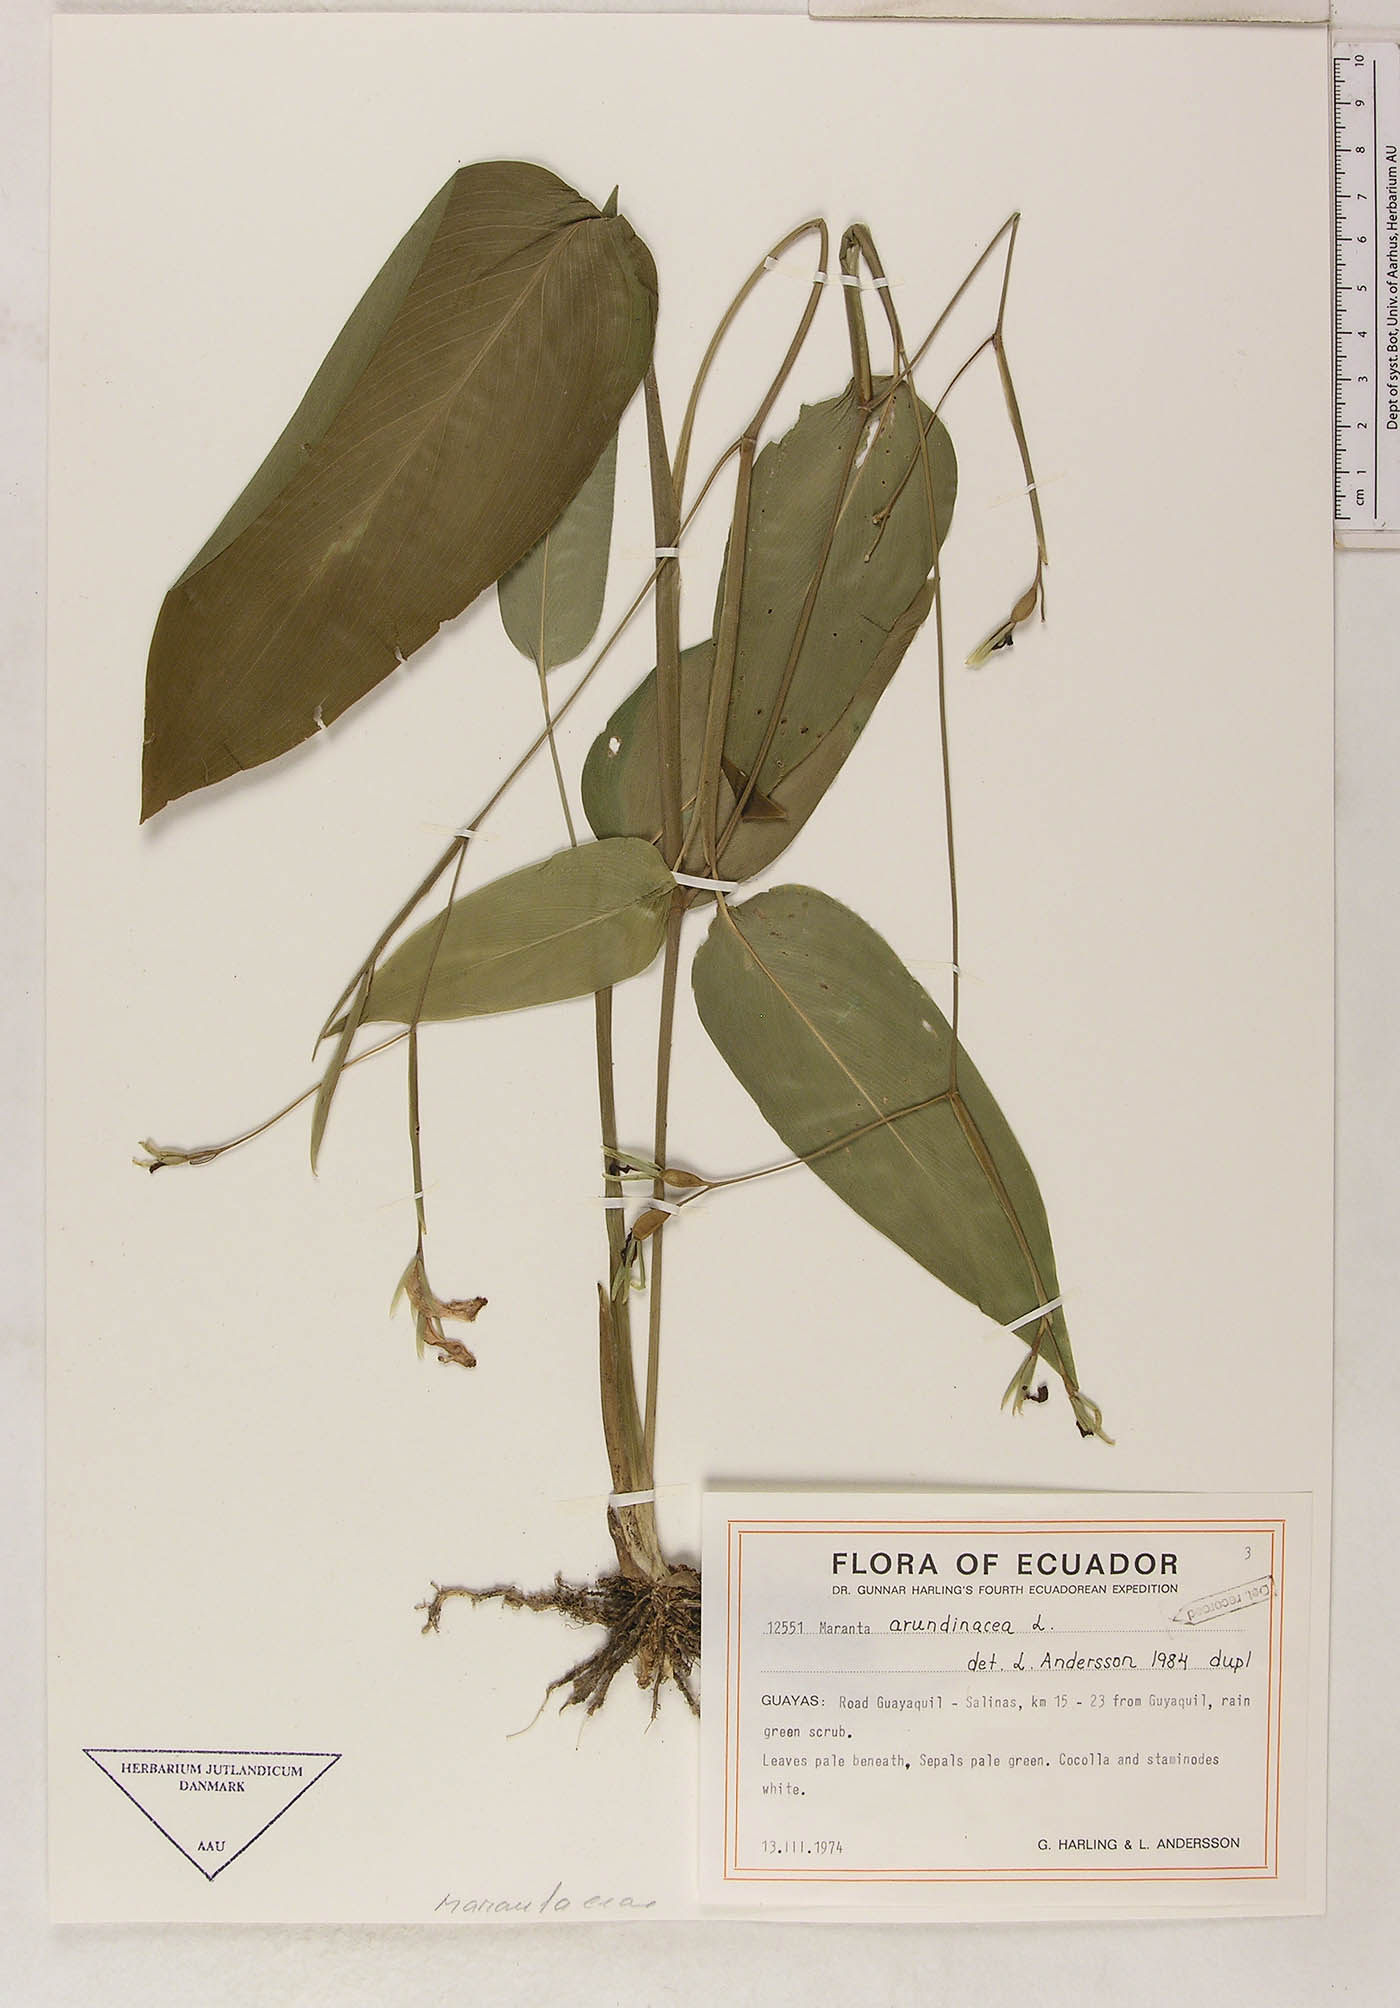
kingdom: Plantae
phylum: Tracheophyta
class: Liliopsida
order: Zingiberales
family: Marantaceae
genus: Maranta
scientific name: Maranta arundinacea
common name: Arrowroot
